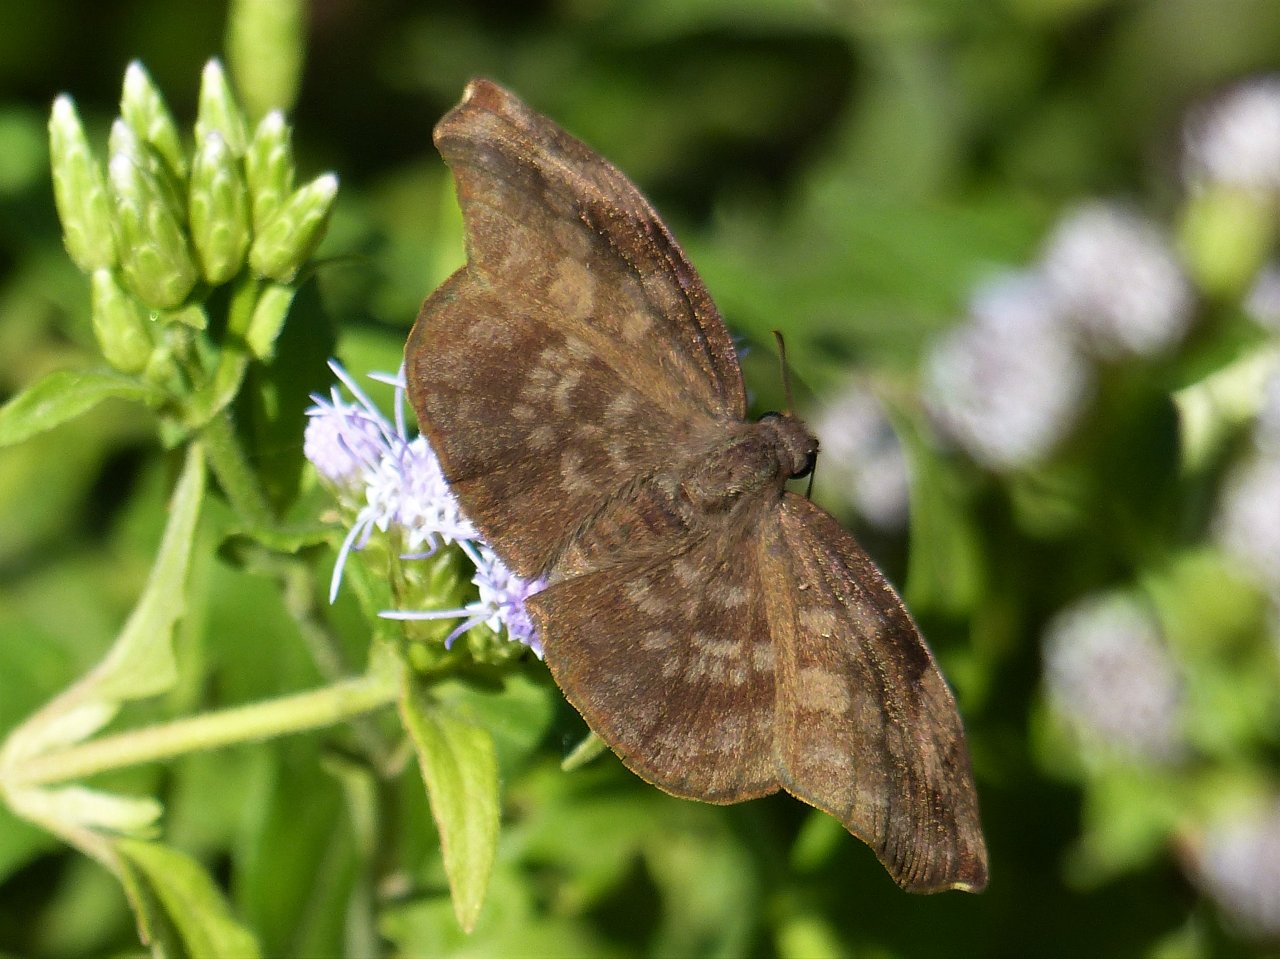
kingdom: Animalia
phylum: Arthropoda
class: Insecta
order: Lepidoptera
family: Hesperiidae
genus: Achlyodes
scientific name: Achlyodes thraso
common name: Sickle-winged Skipper
